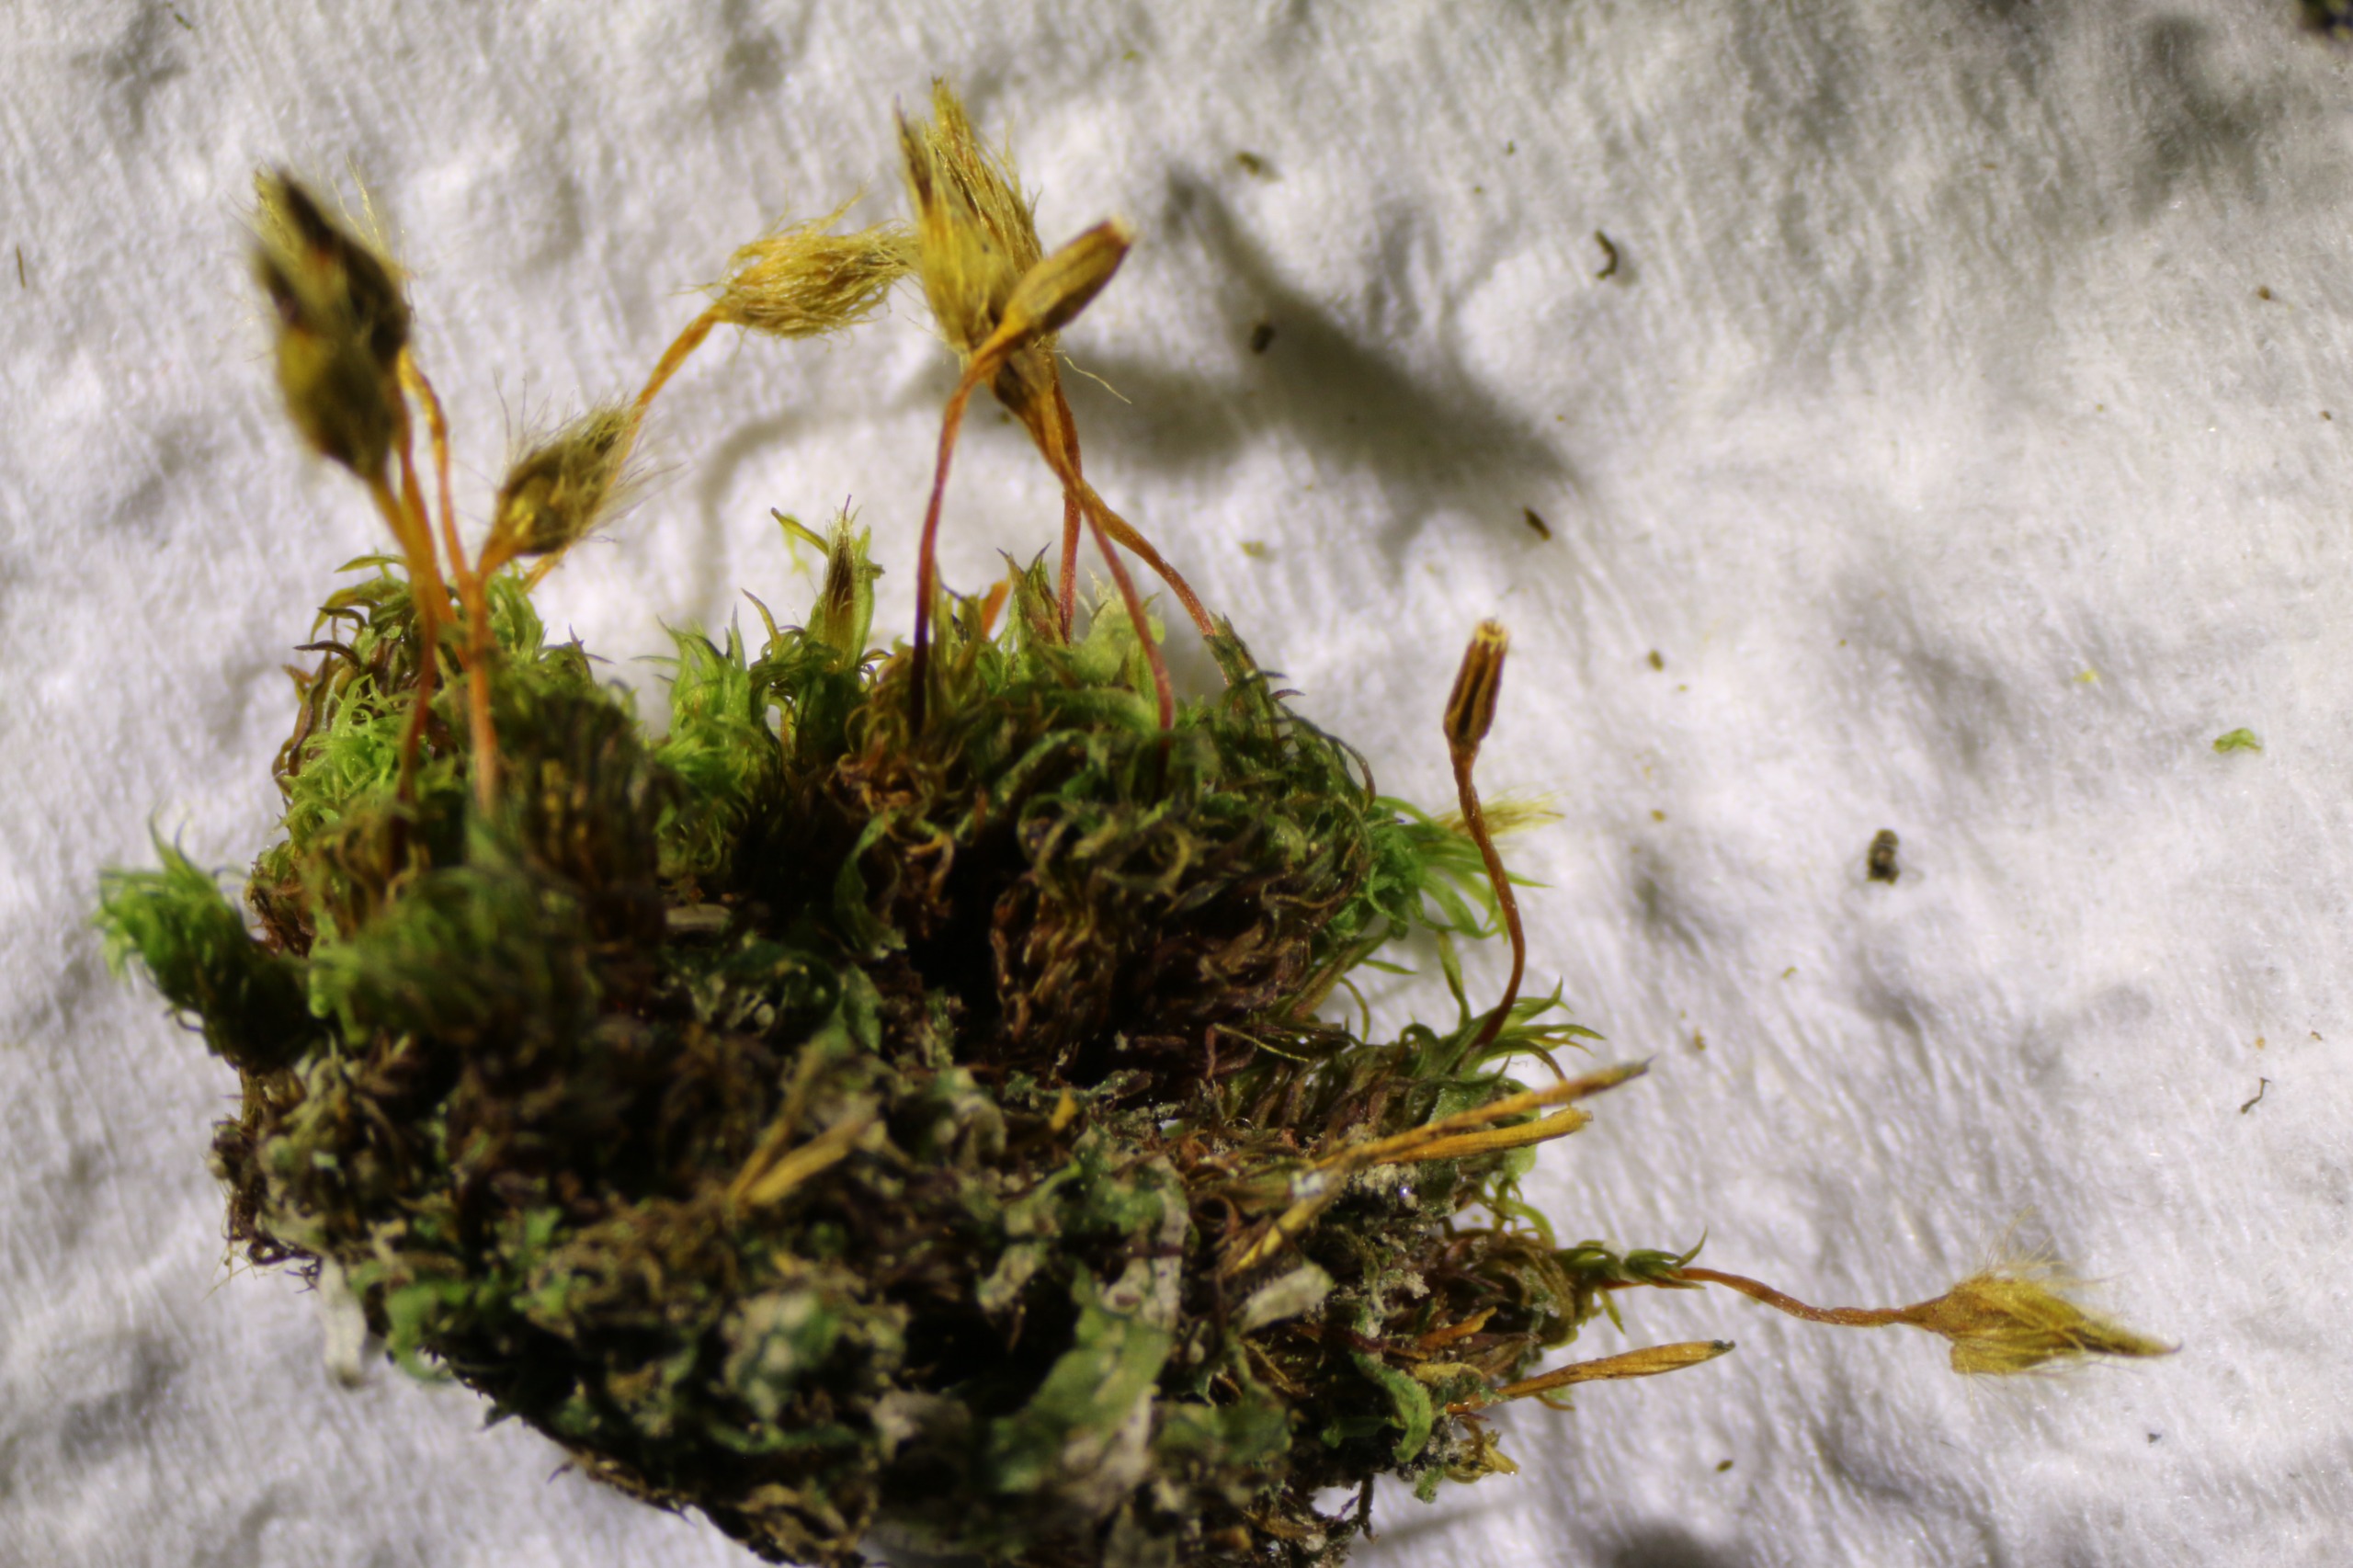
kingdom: Plantae
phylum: Bryophyta
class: Bryopsida
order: Orthotrichales
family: Orthotrichaceae
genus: Ulota
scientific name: Ulota bruchii
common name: Bruchs låddenhætte
